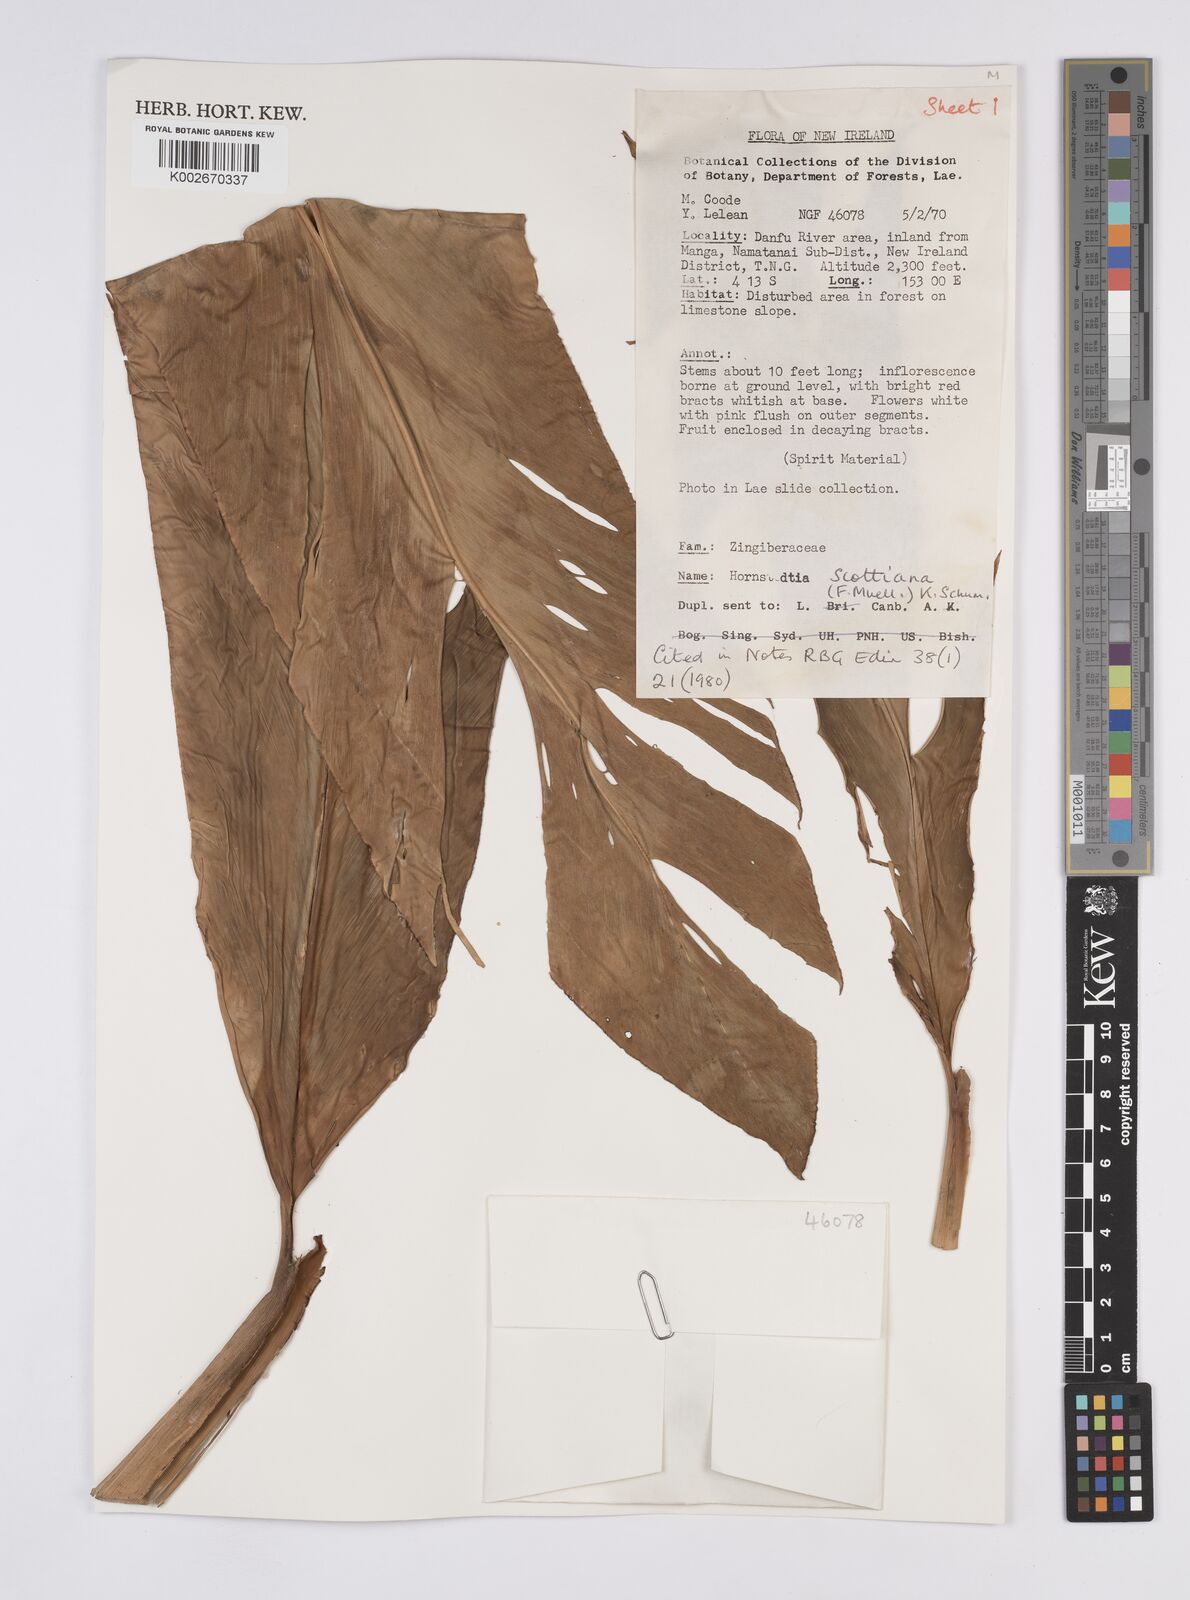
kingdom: Plantae
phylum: Tracheophyta
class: Liliopsida
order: Zingiberales
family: Zingiberaceae
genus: Hornstedtia
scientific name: Hornstedtia scottiana
